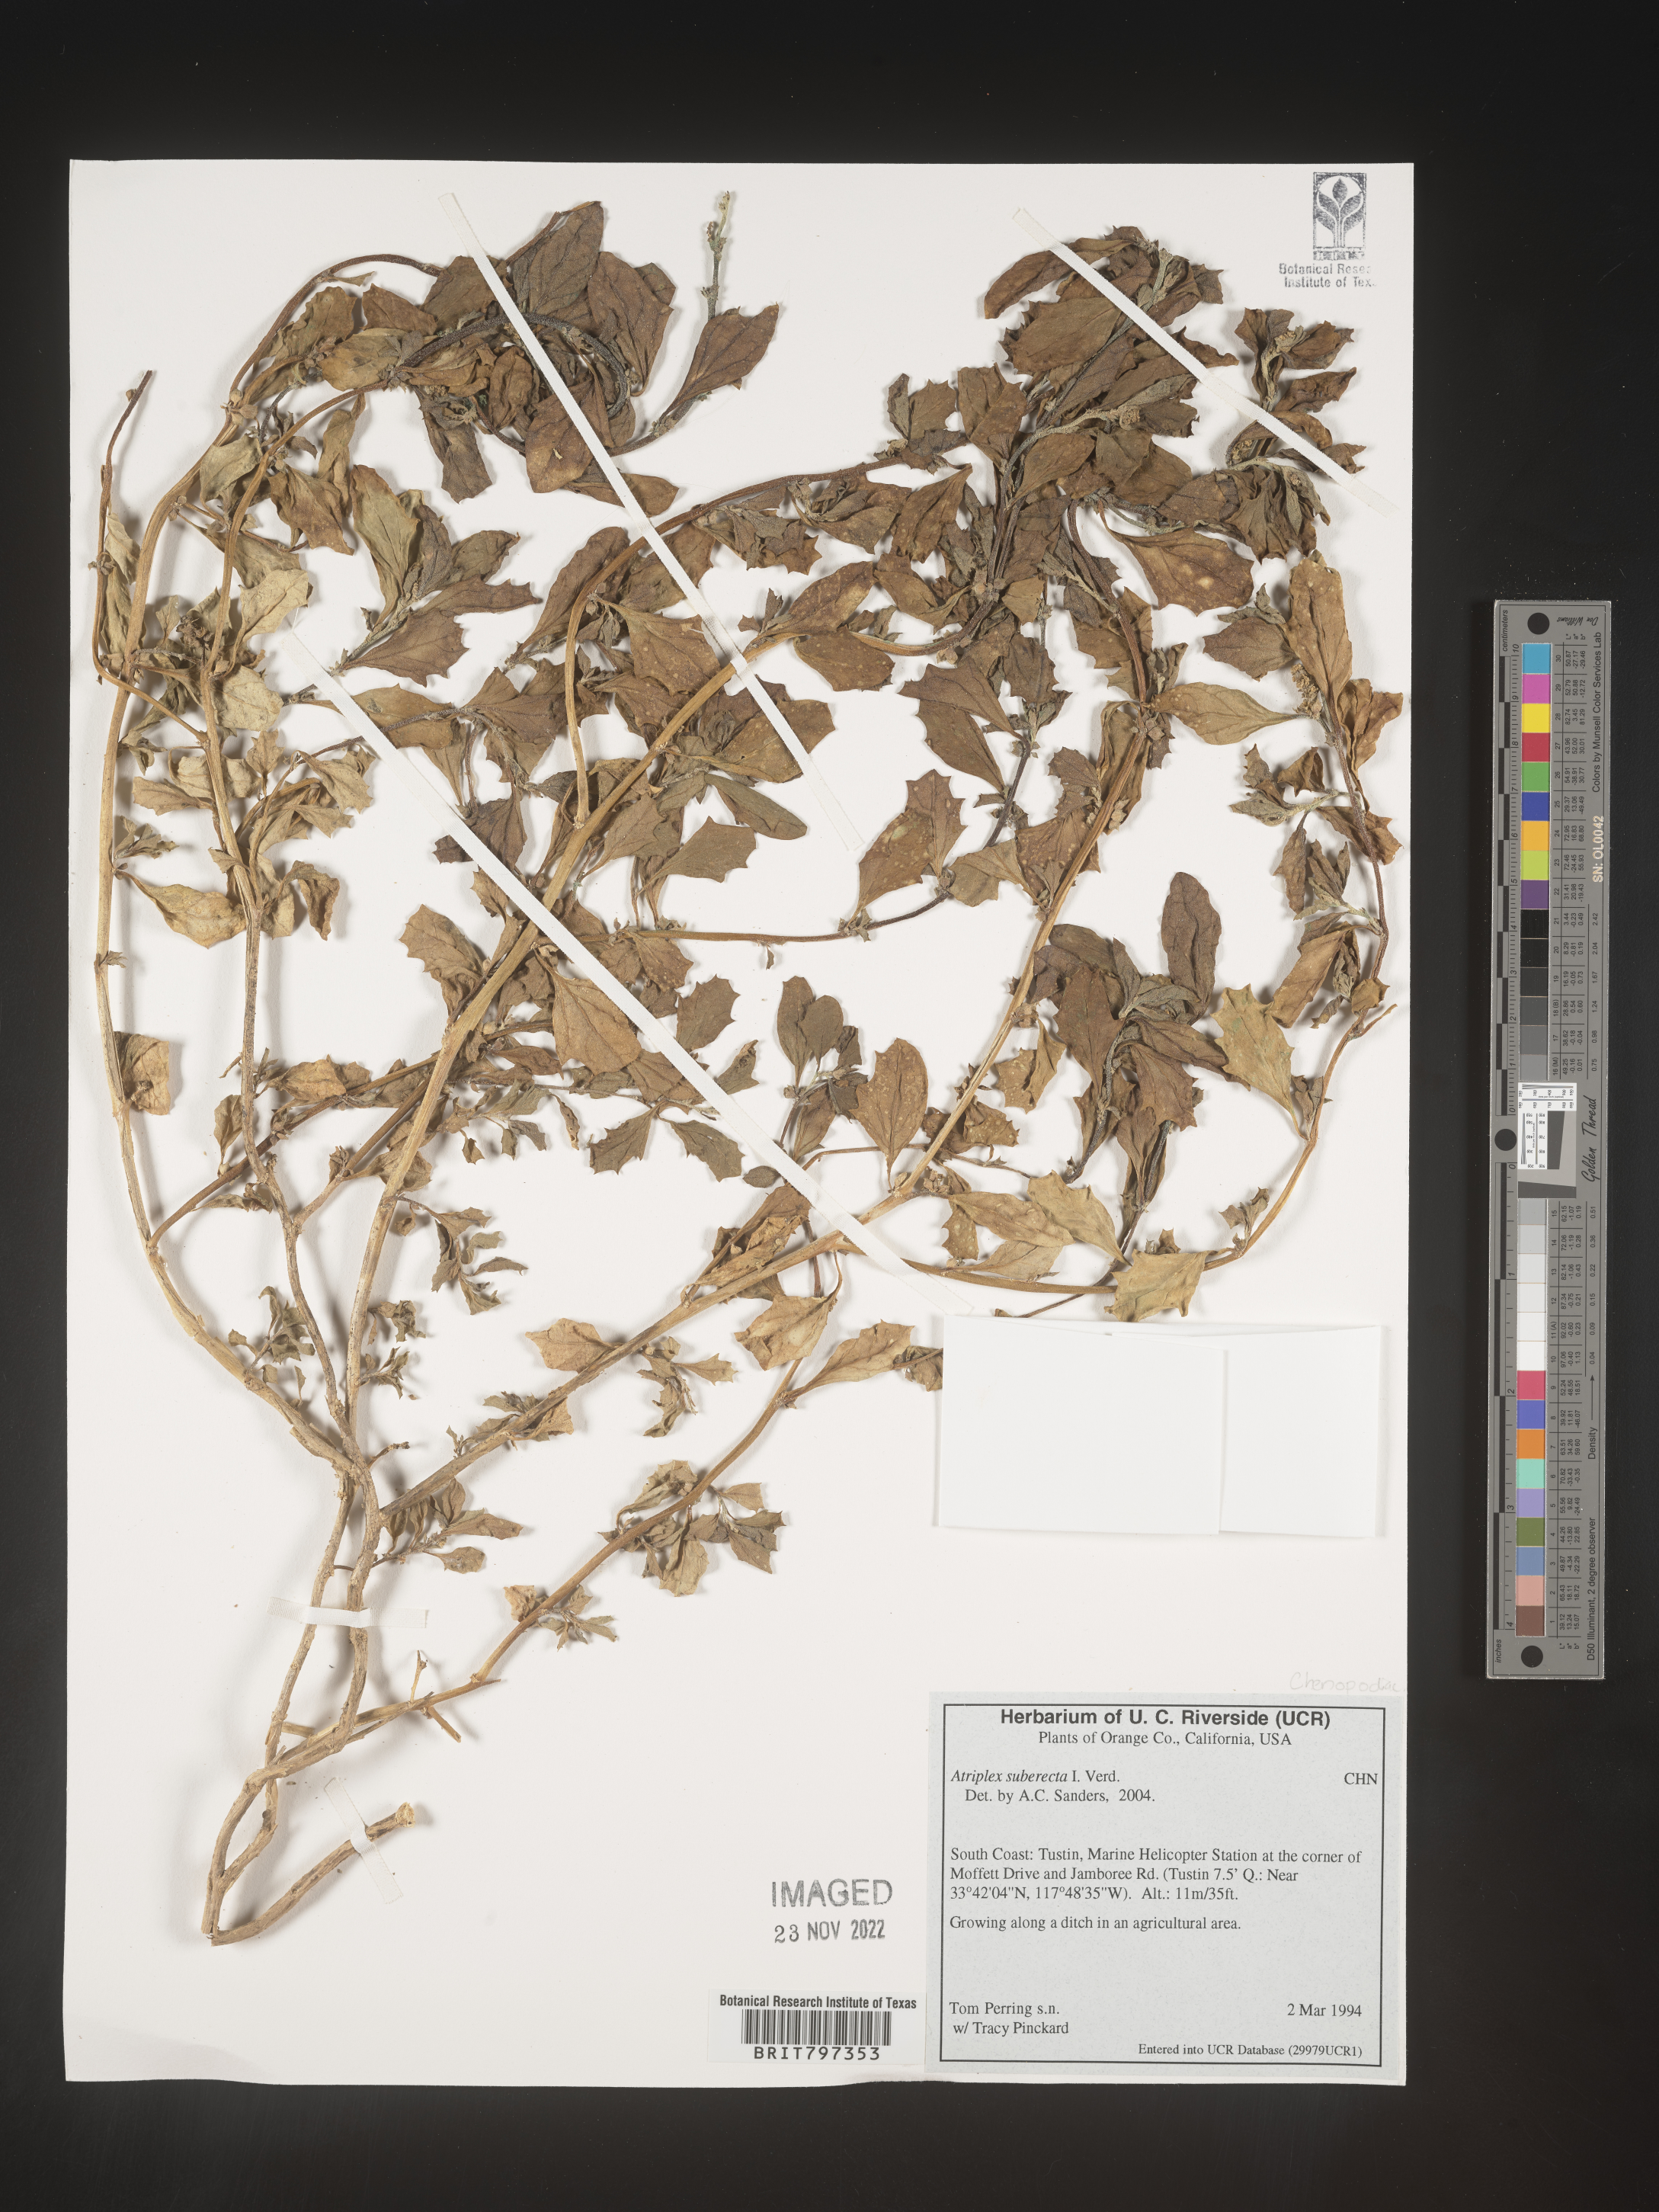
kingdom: Plantae
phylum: Tracheophyta
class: Magnoliopsida
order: Caryophyllales
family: Amaranthaceae
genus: Atriplex
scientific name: Atriplex
